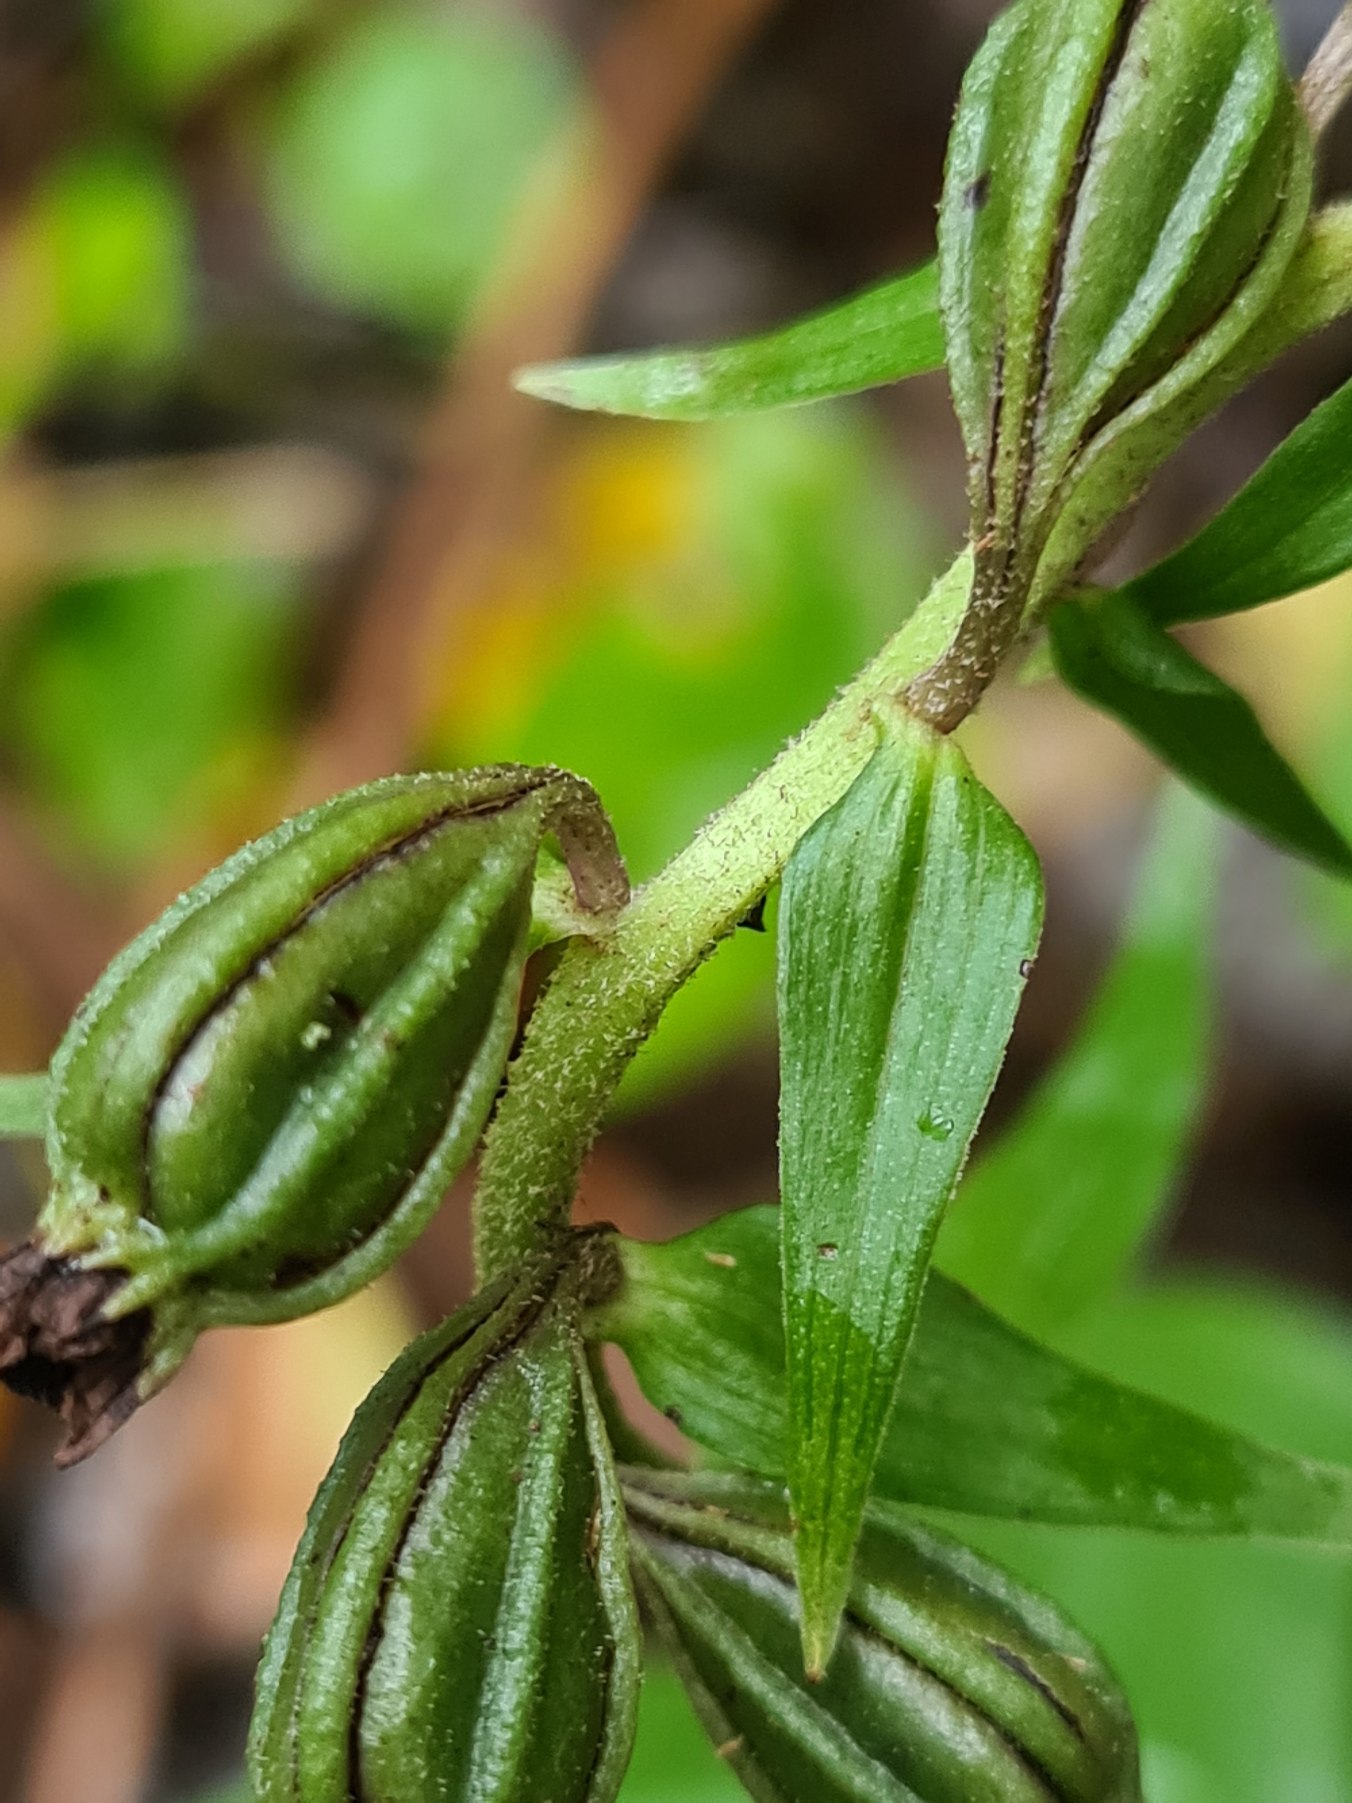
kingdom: Plantae
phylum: Tracheophyta
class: Liliopsida
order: Asparagales
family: Orchidaceae
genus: Epipactis
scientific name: Epipactis helleborine
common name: Skov-hullæbe
